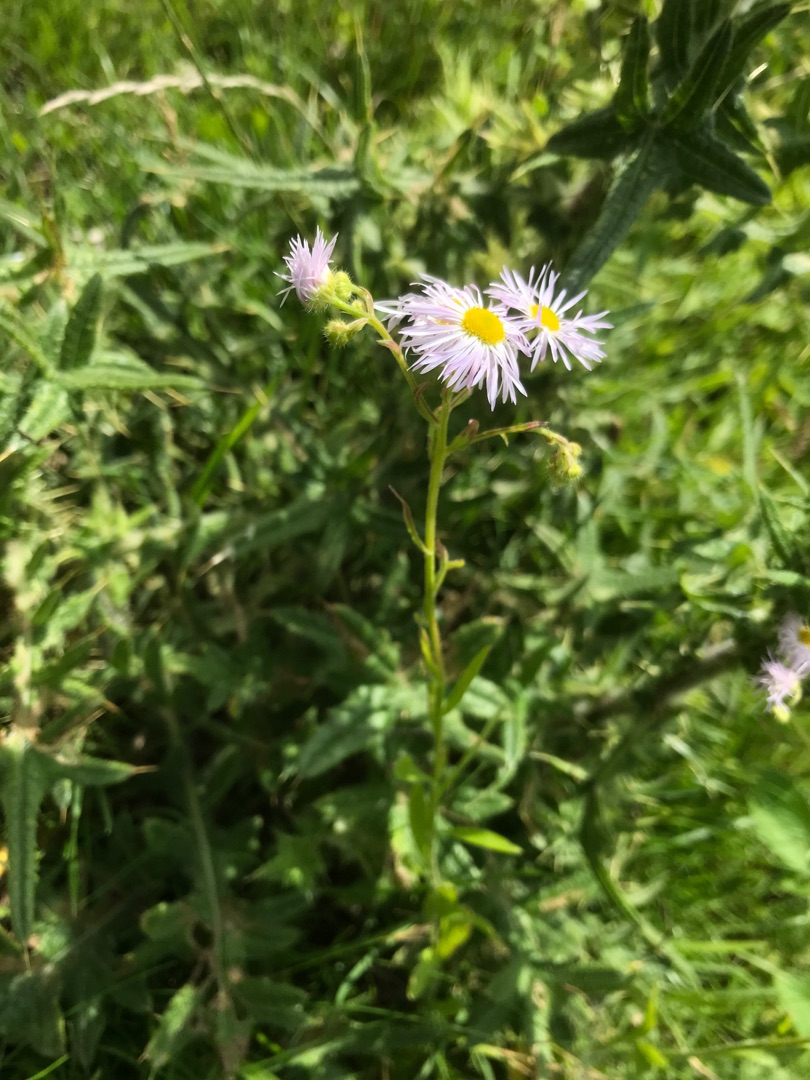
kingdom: Plantae
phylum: Tracheophyta
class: Magnoliopsida
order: Asterales
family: Asteraceae
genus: Erigeron
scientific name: Erigeron annuus
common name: Smalstråle
